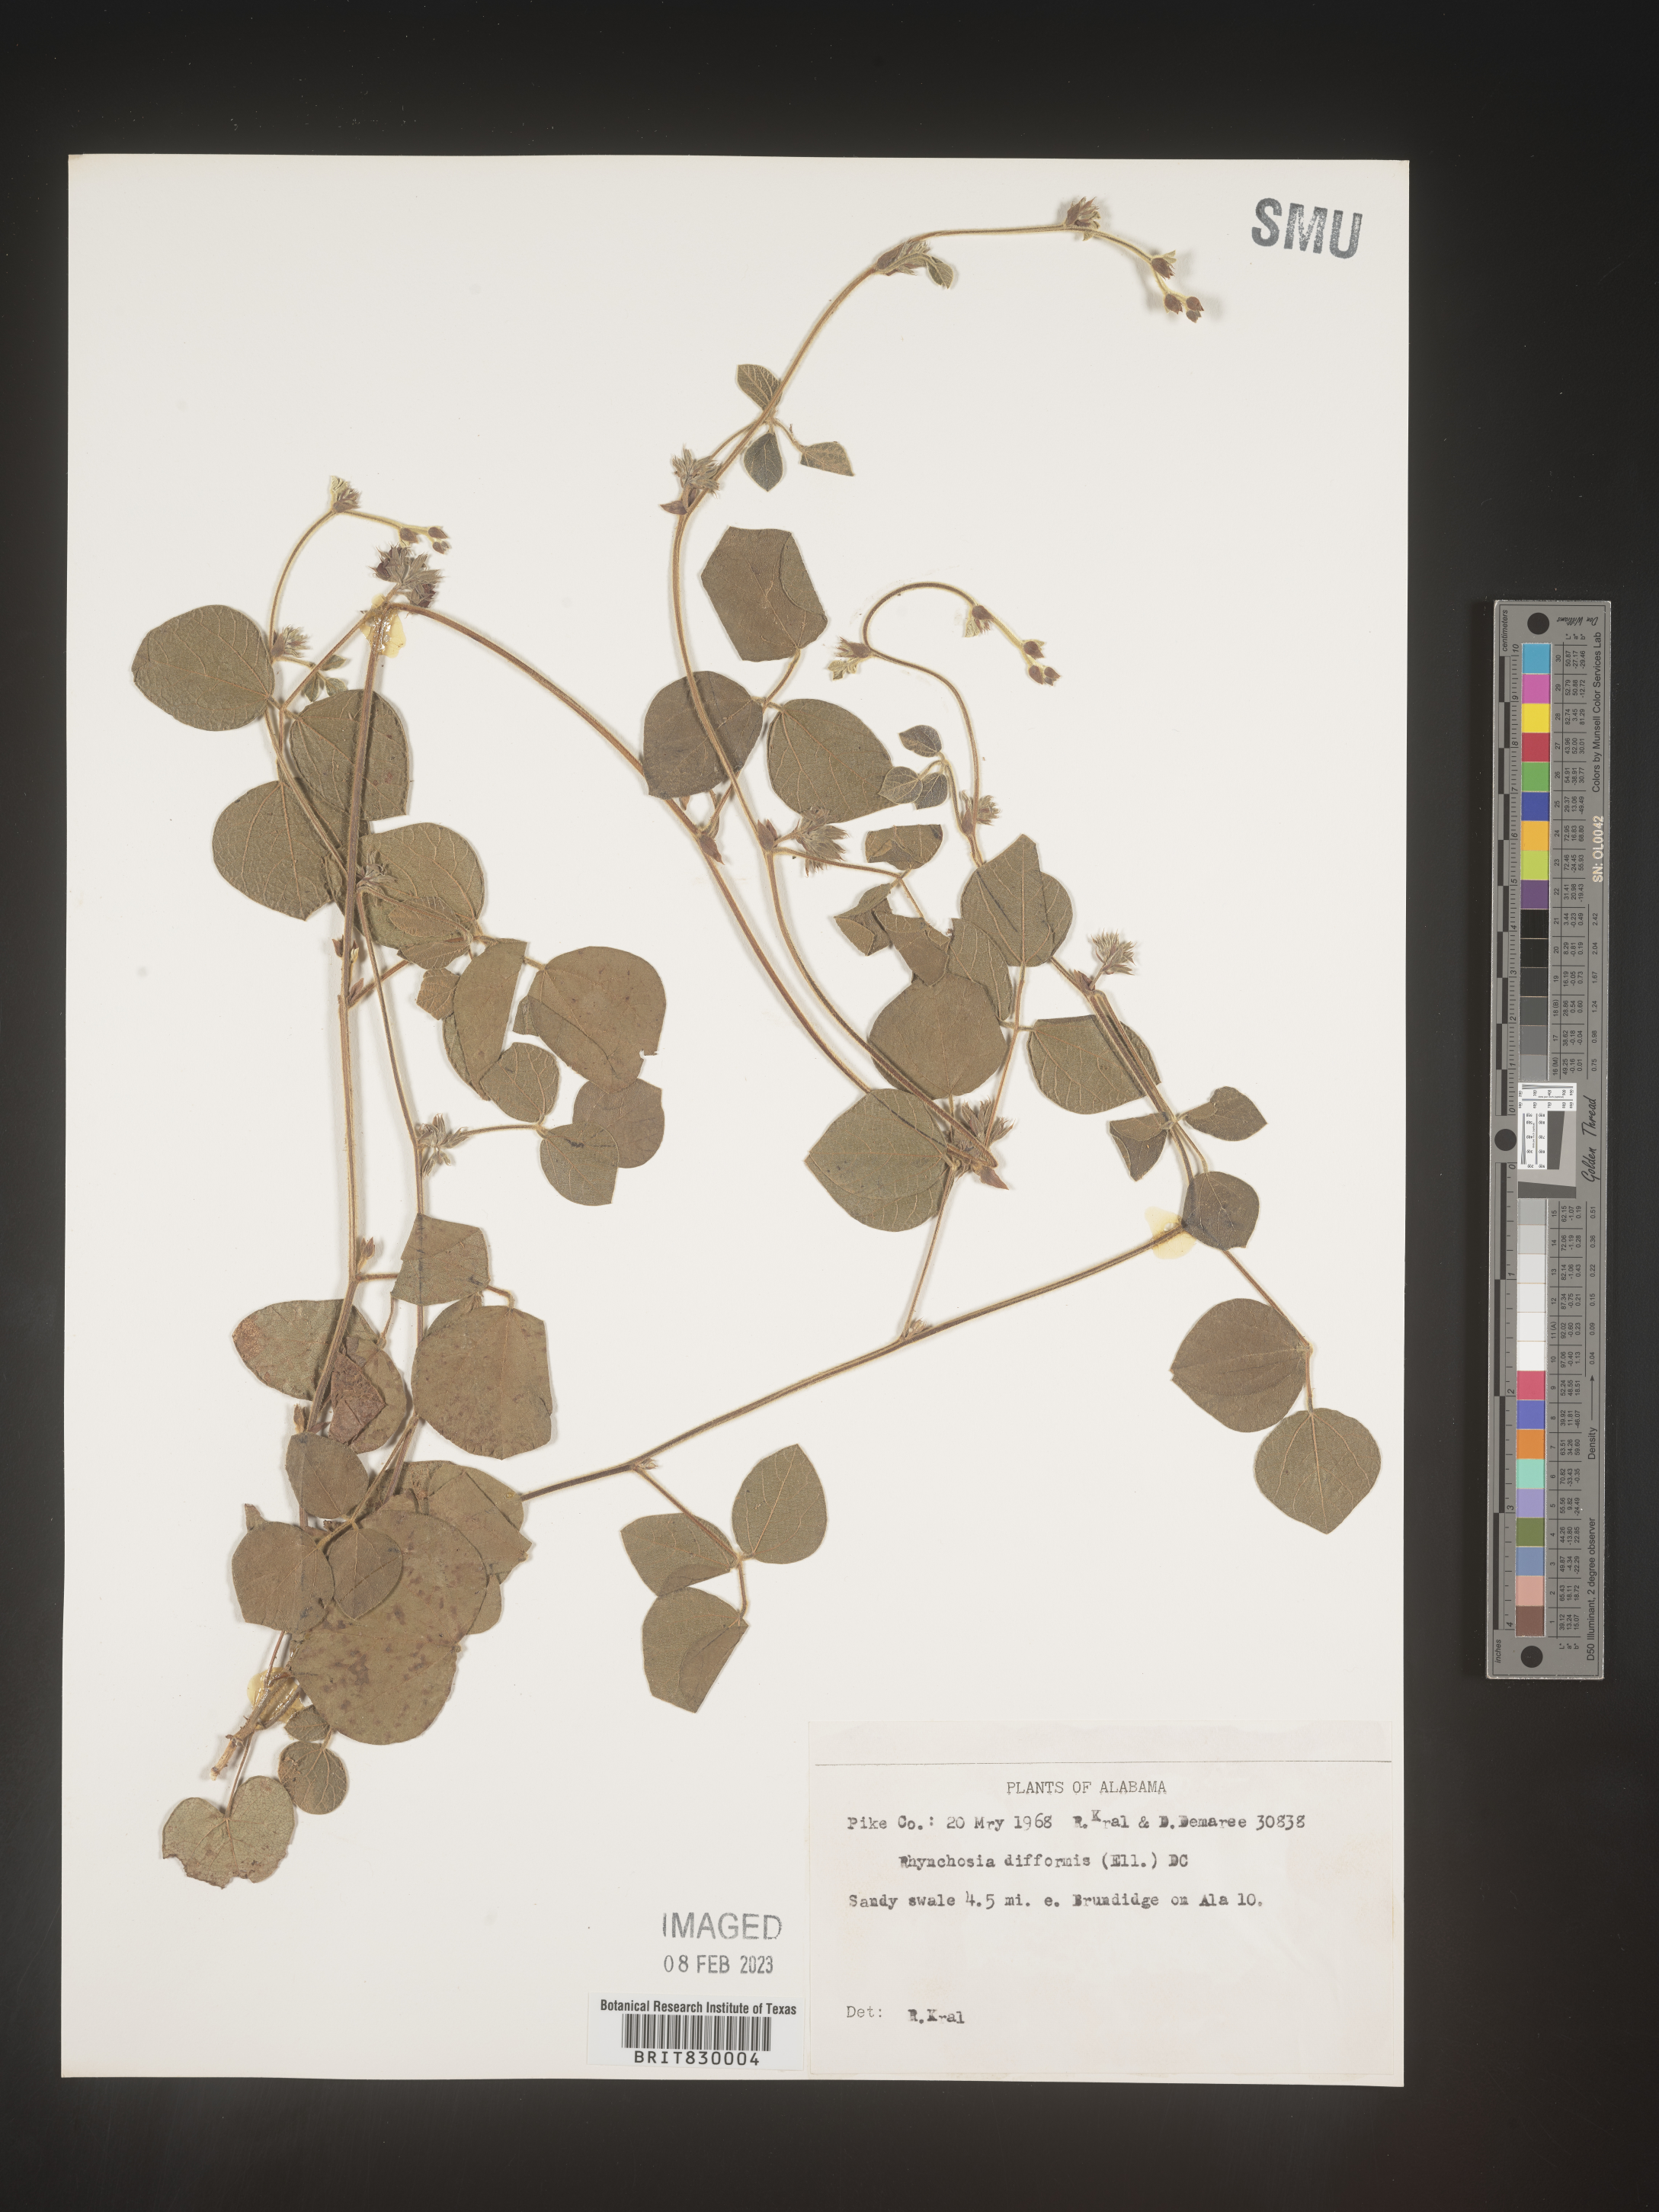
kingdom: Plantae
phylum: Tracheophyta
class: Magnoliopsida
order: Fabales
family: Fabaceae
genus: Rhynchosia
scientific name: Rhynchosia difformis
